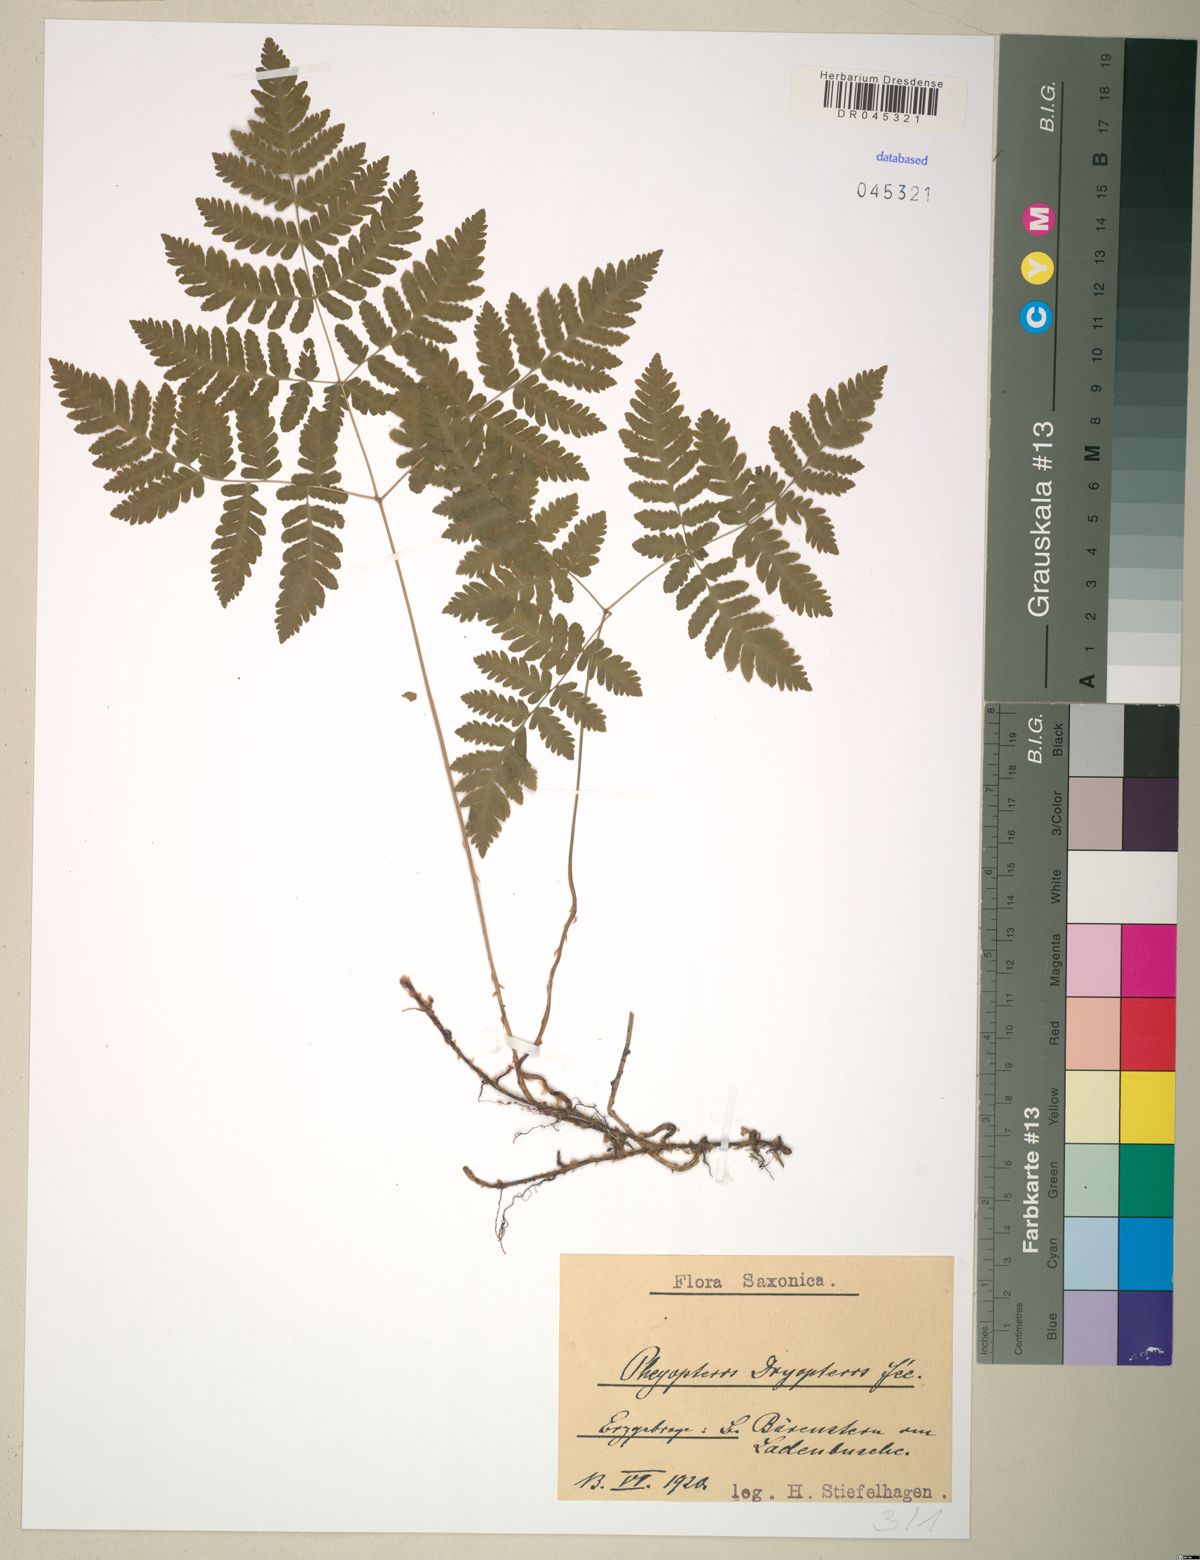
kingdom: Plantae
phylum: Tracheophyta
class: Polypodiopsida
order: Polypodiales
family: Cystopteridaceae
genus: Gymnocarpium
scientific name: Gymnocarpium dryopteris
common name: Oak fern
